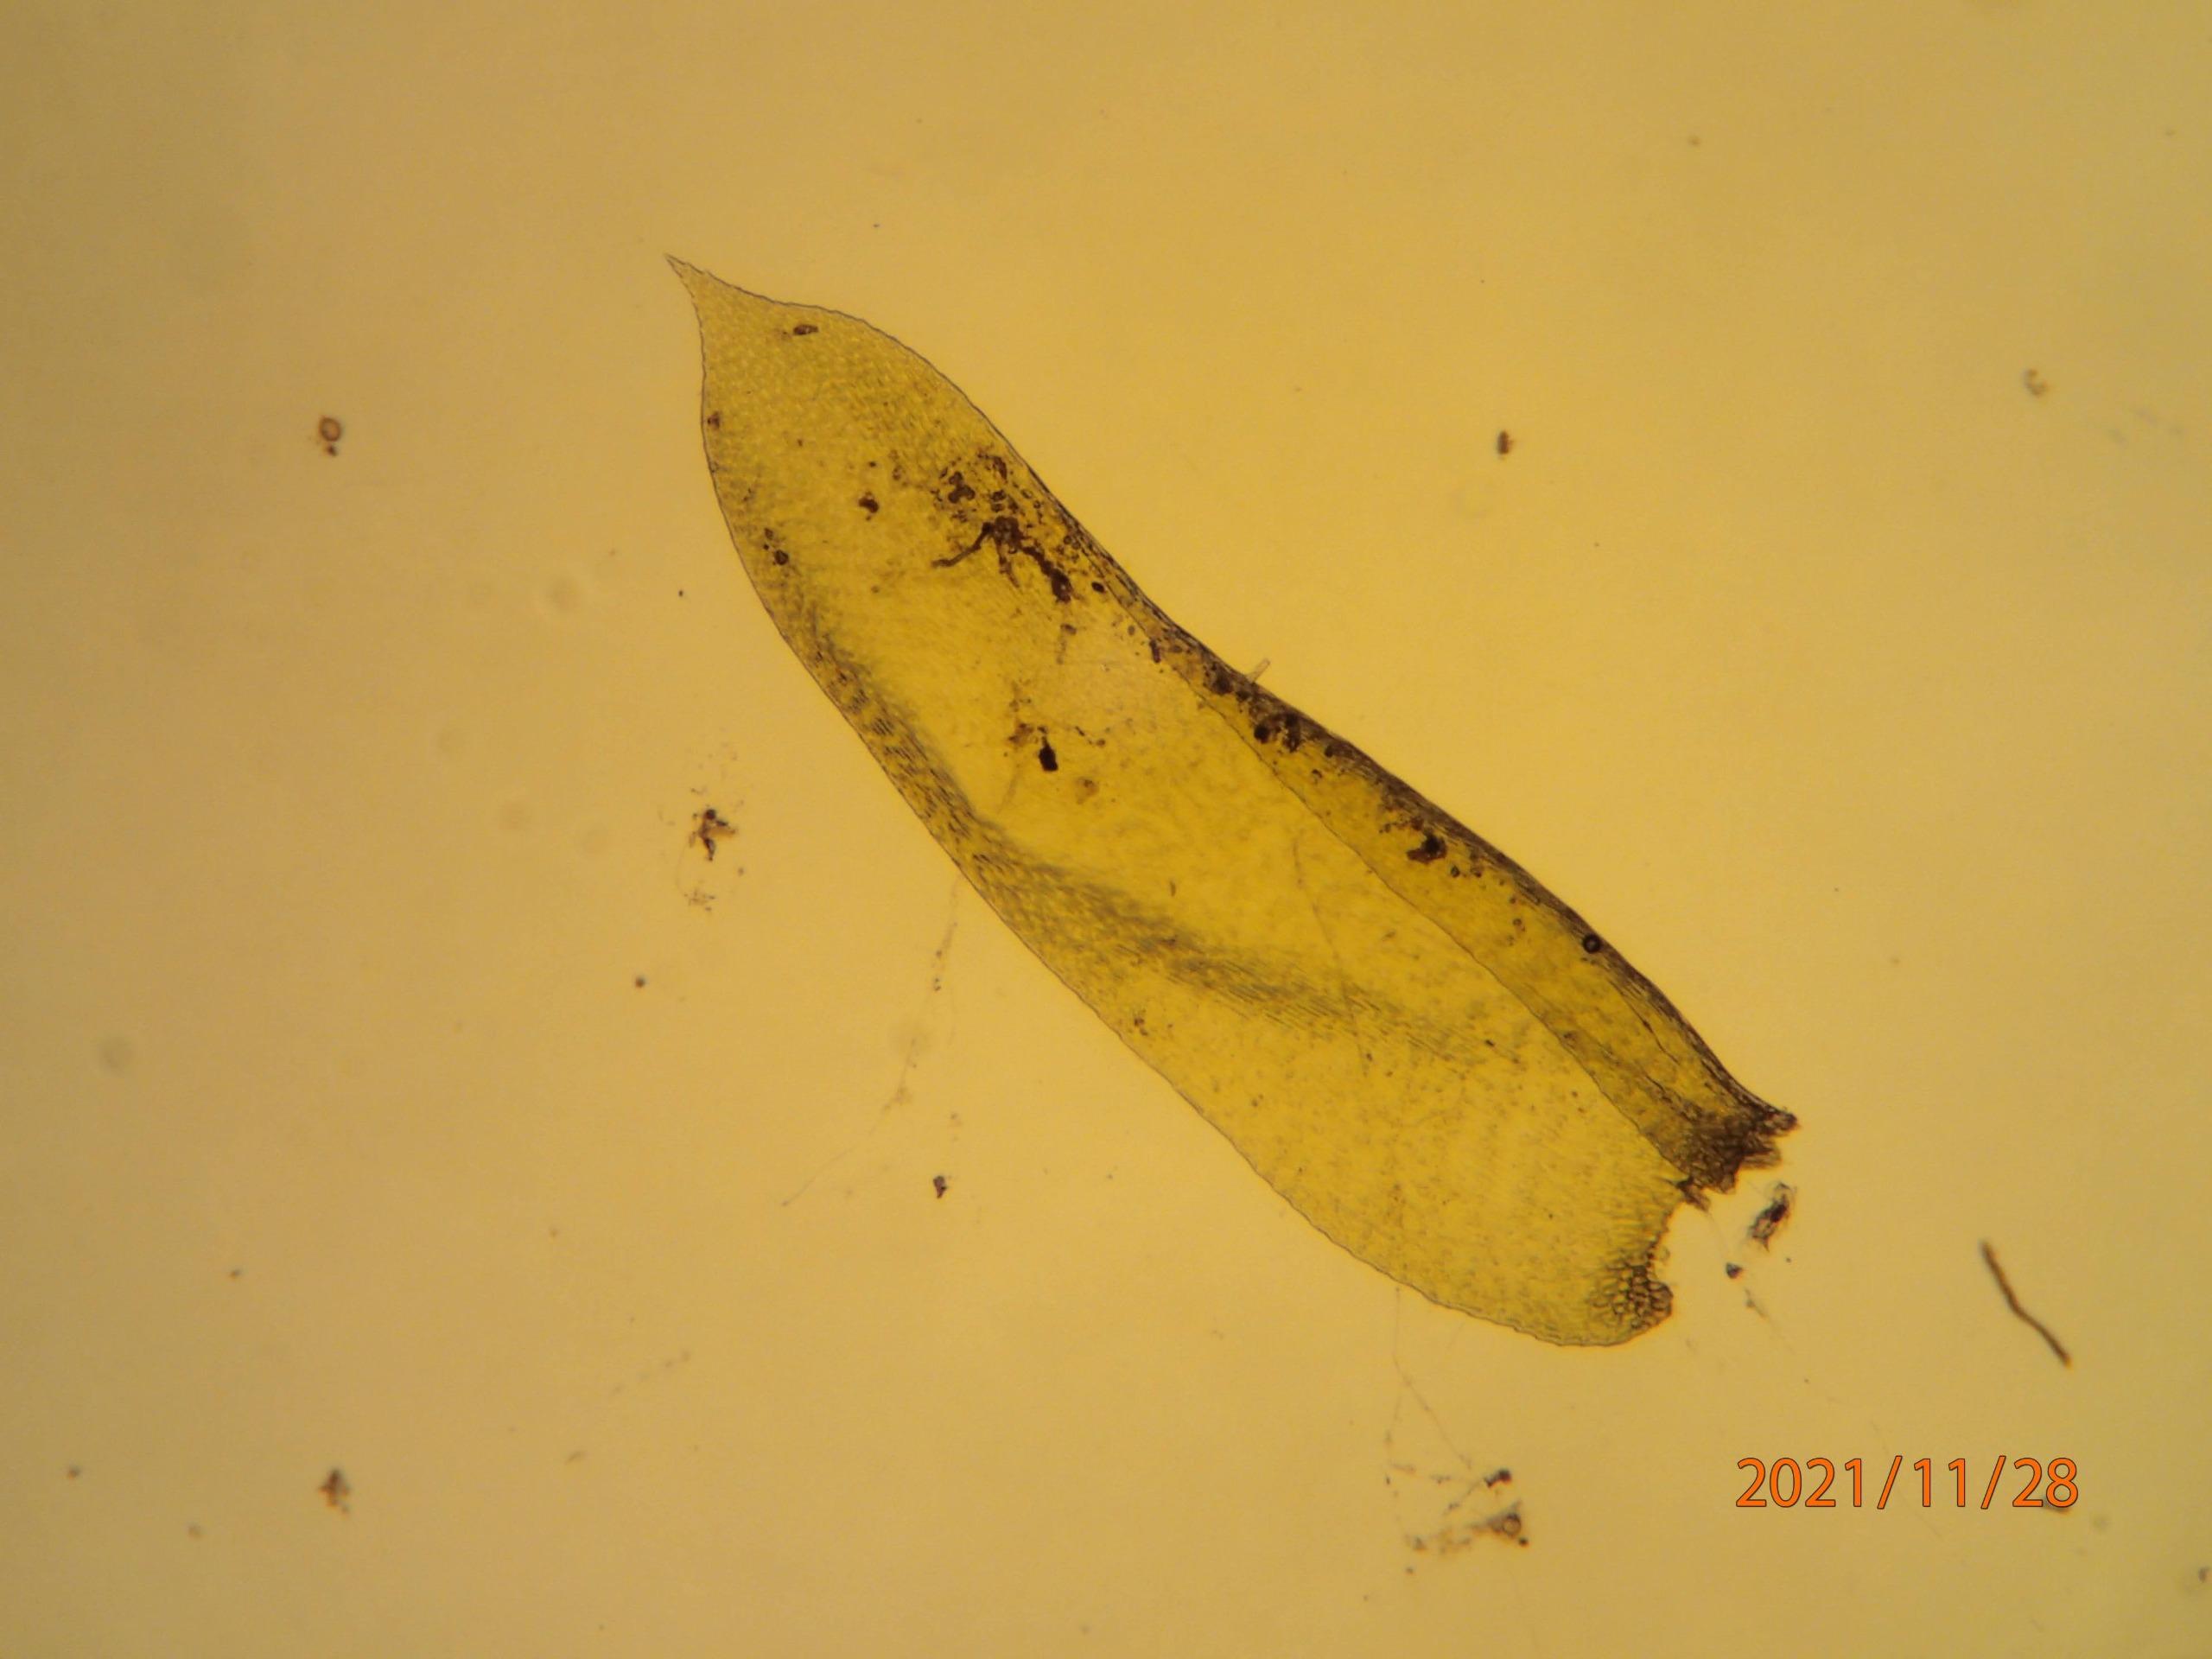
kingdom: Plantae
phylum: Bryophyta
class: Bryopsida
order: Hypnales
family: Neckeraceae
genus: Alleniella
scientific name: Alleniella complanata
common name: Almindelig fladmos
